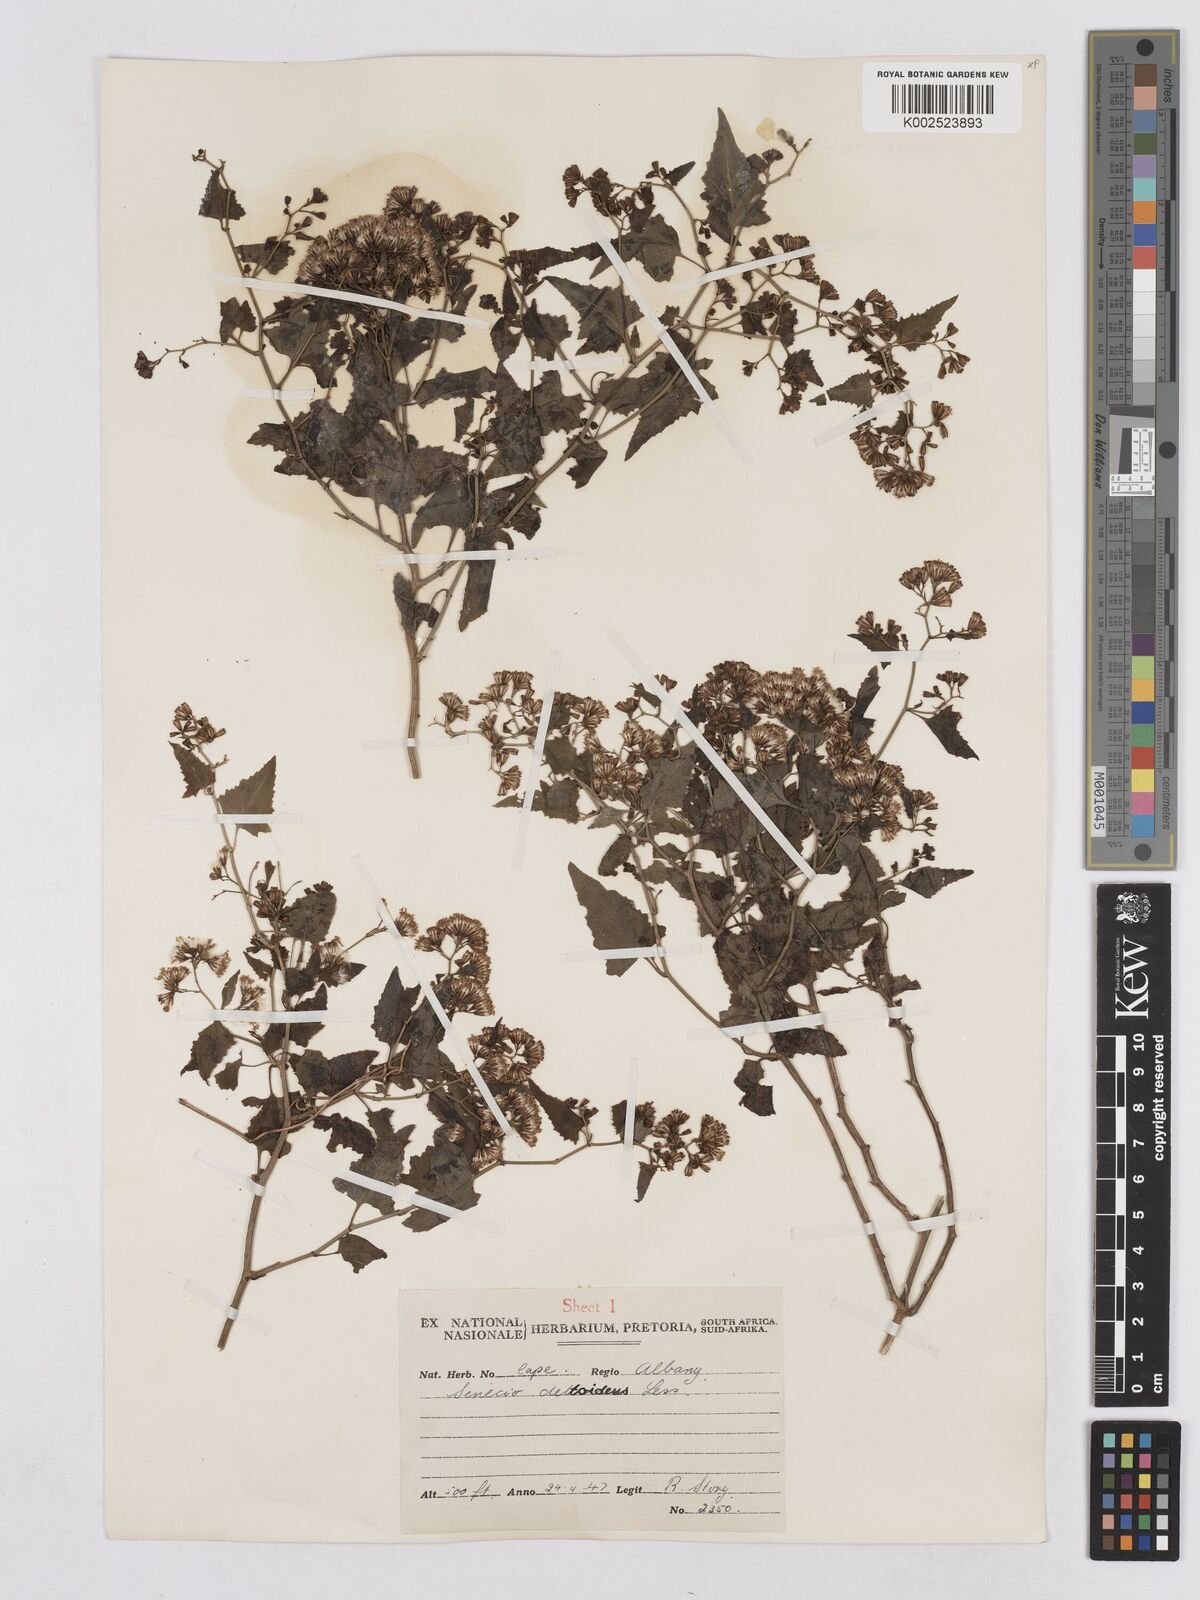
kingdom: Plantae
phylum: Tracheophyta
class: Magnoliopsida
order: Asterales
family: Asteraceae
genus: Senecio
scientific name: Senecio deltoideus
